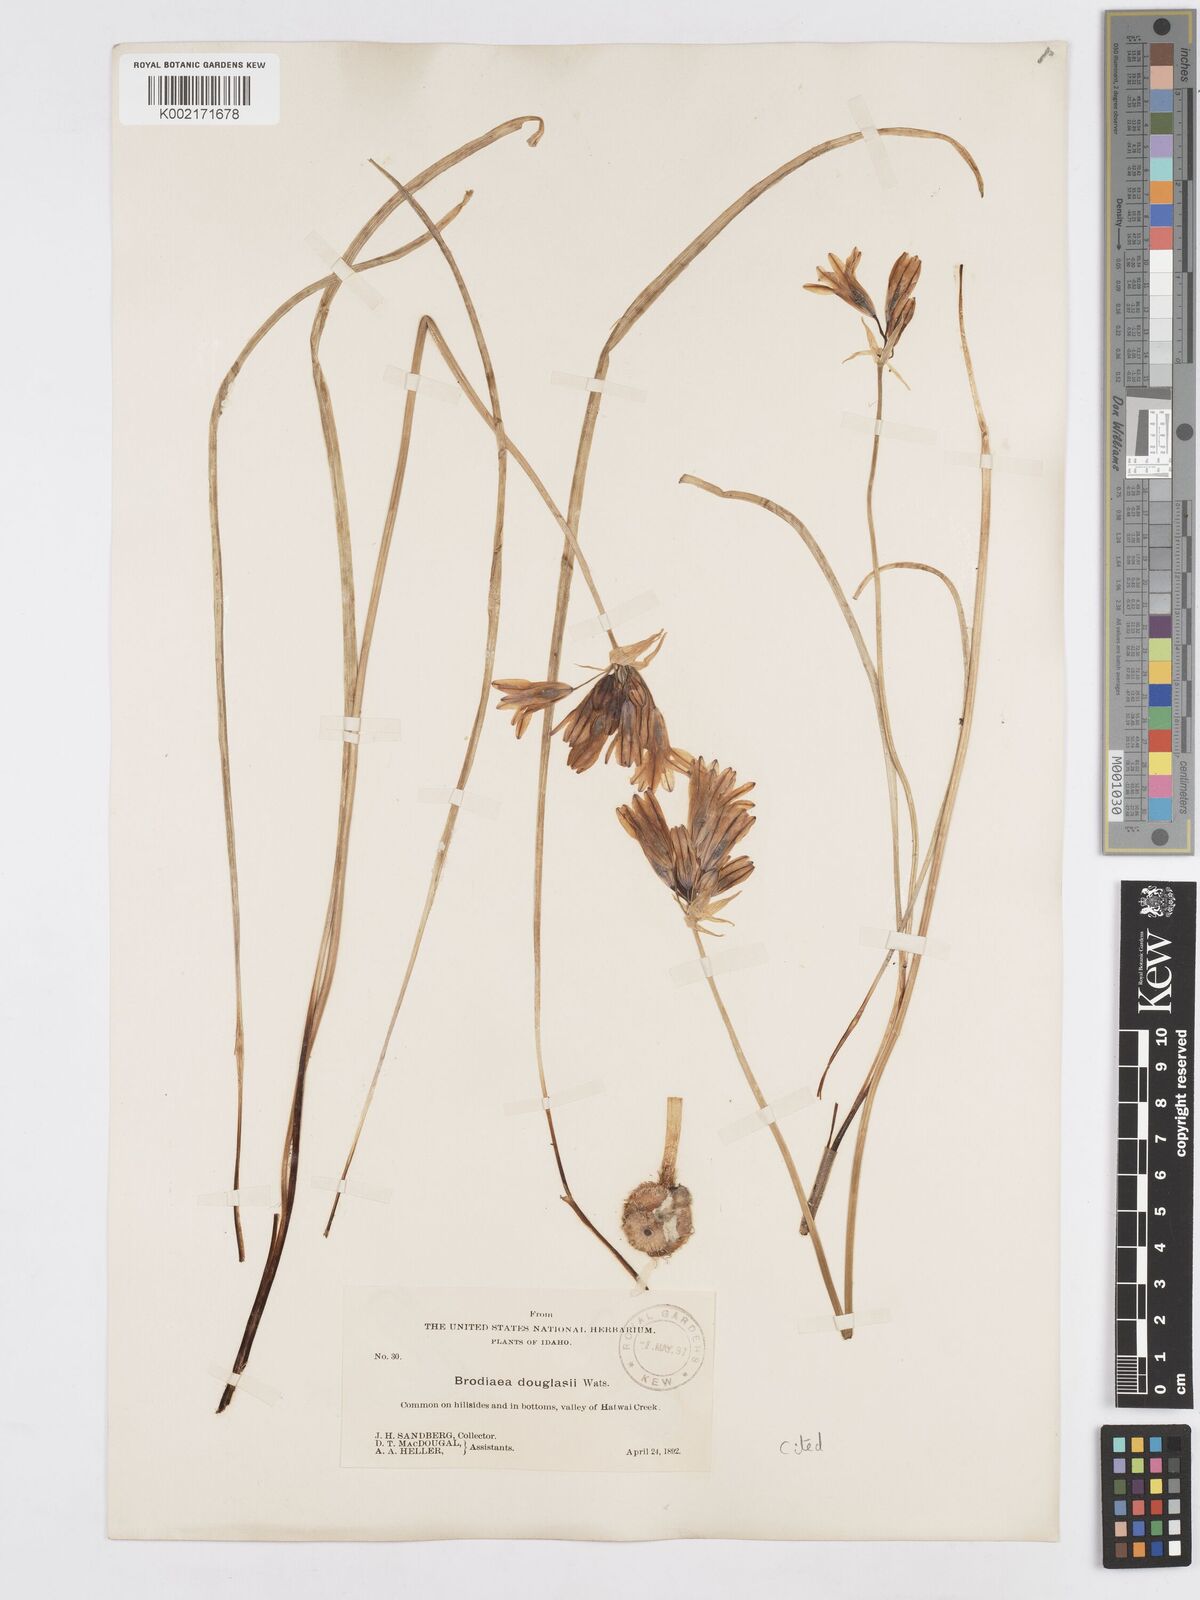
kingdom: Plantae
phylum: Tracheophyta
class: Liliopsida
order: Asparagales
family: Asparagaceae
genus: Triteleia
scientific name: Triteleia grandiflora
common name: Wild hyacinth
